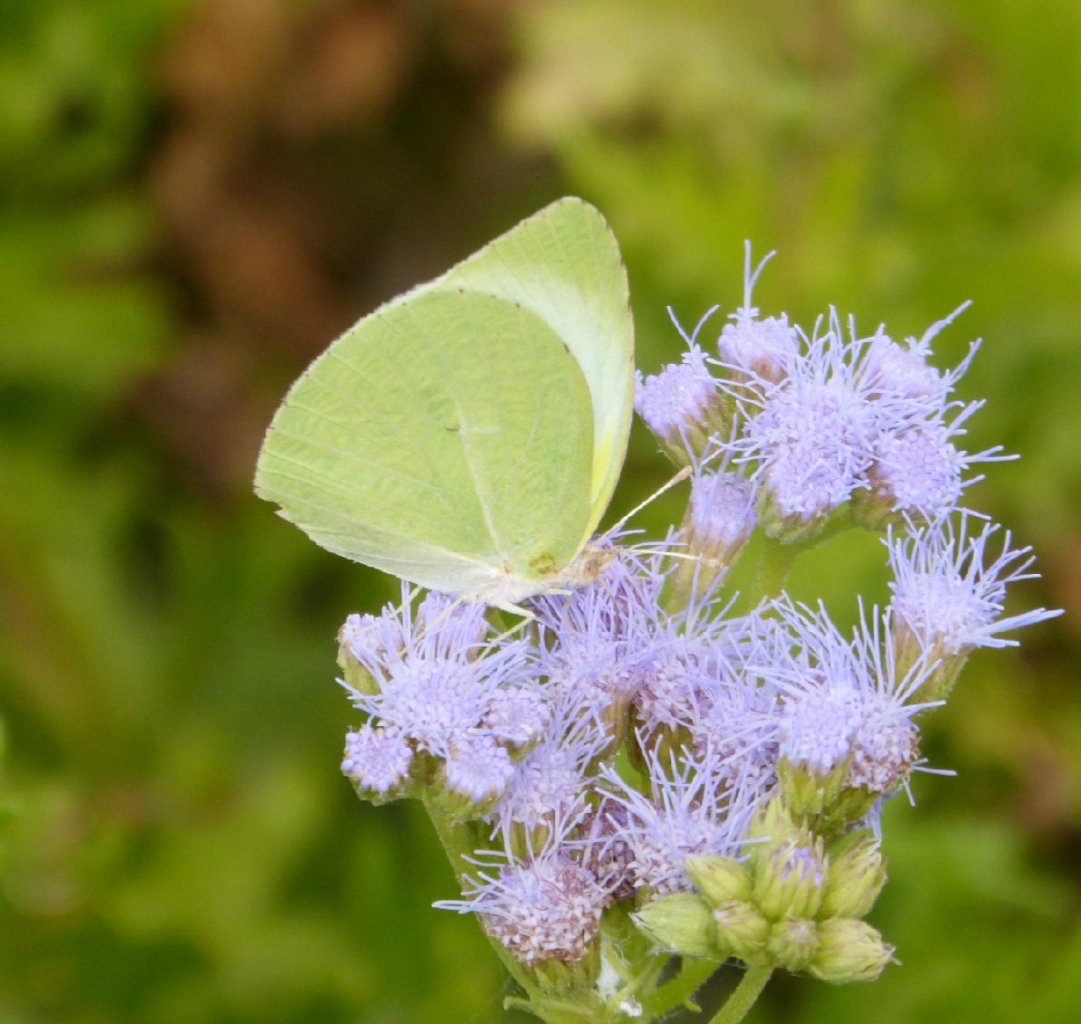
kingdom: Animalia
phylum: Arthropoda
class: Insecta
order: Lepidoptera
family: Pieridae
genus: Kricogonia
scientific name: Kricogonia lyside
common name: Lyside Sulphur
